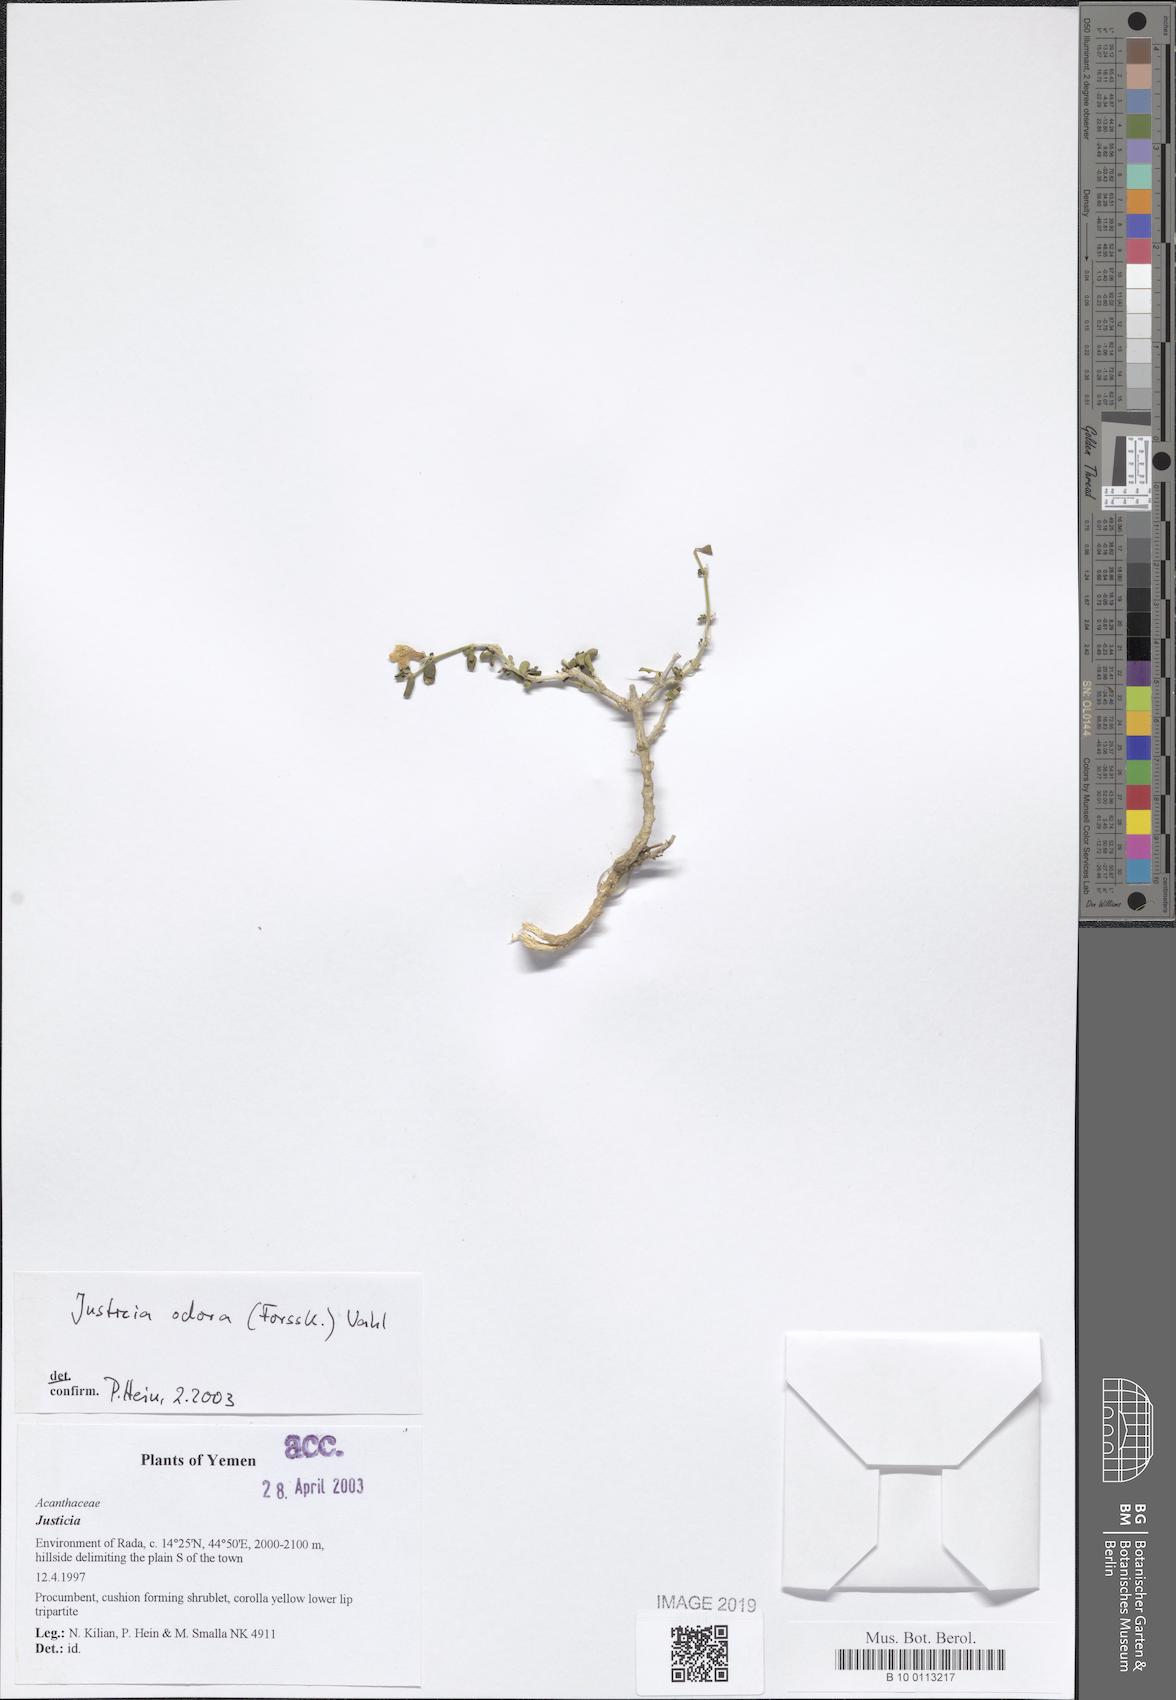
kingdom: Plantae
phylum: Tracheophyta
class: Magnoliopsida
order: Lamiales
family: Acanthaceae
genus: Justicia
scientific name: Justicia odora
